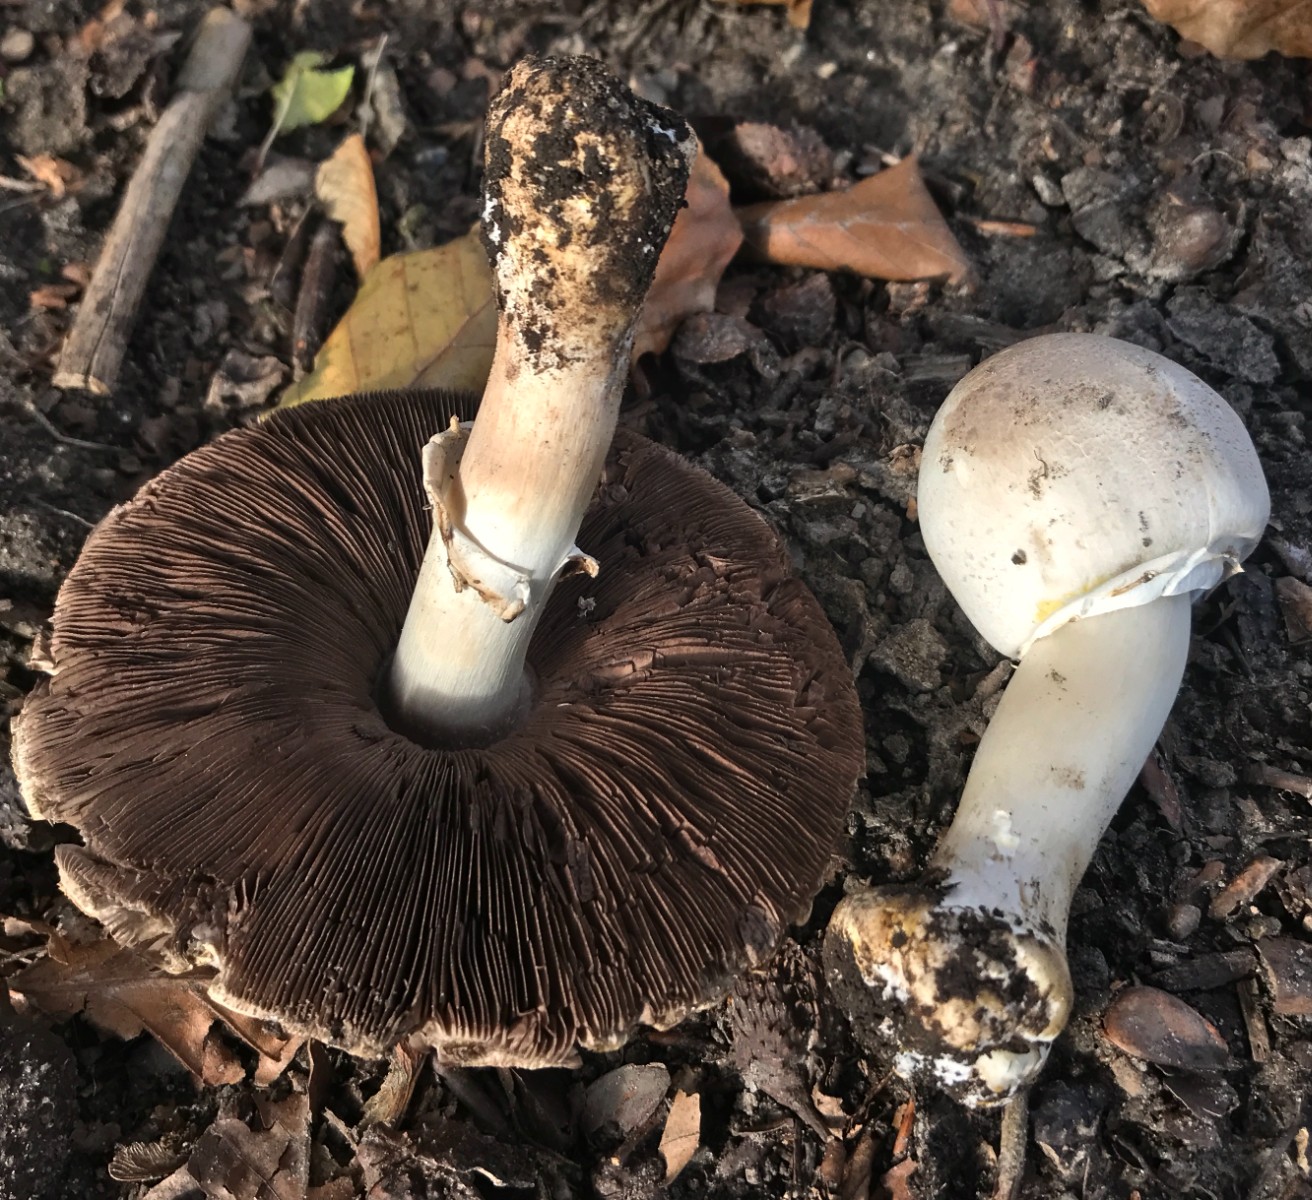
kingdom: Fungi
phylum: Basidiomycota
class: Agaricomycetes
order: Agaricales
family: Agaricaceae
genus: Agaricus
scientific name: Agaricus arvensis
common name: ager-champignon
